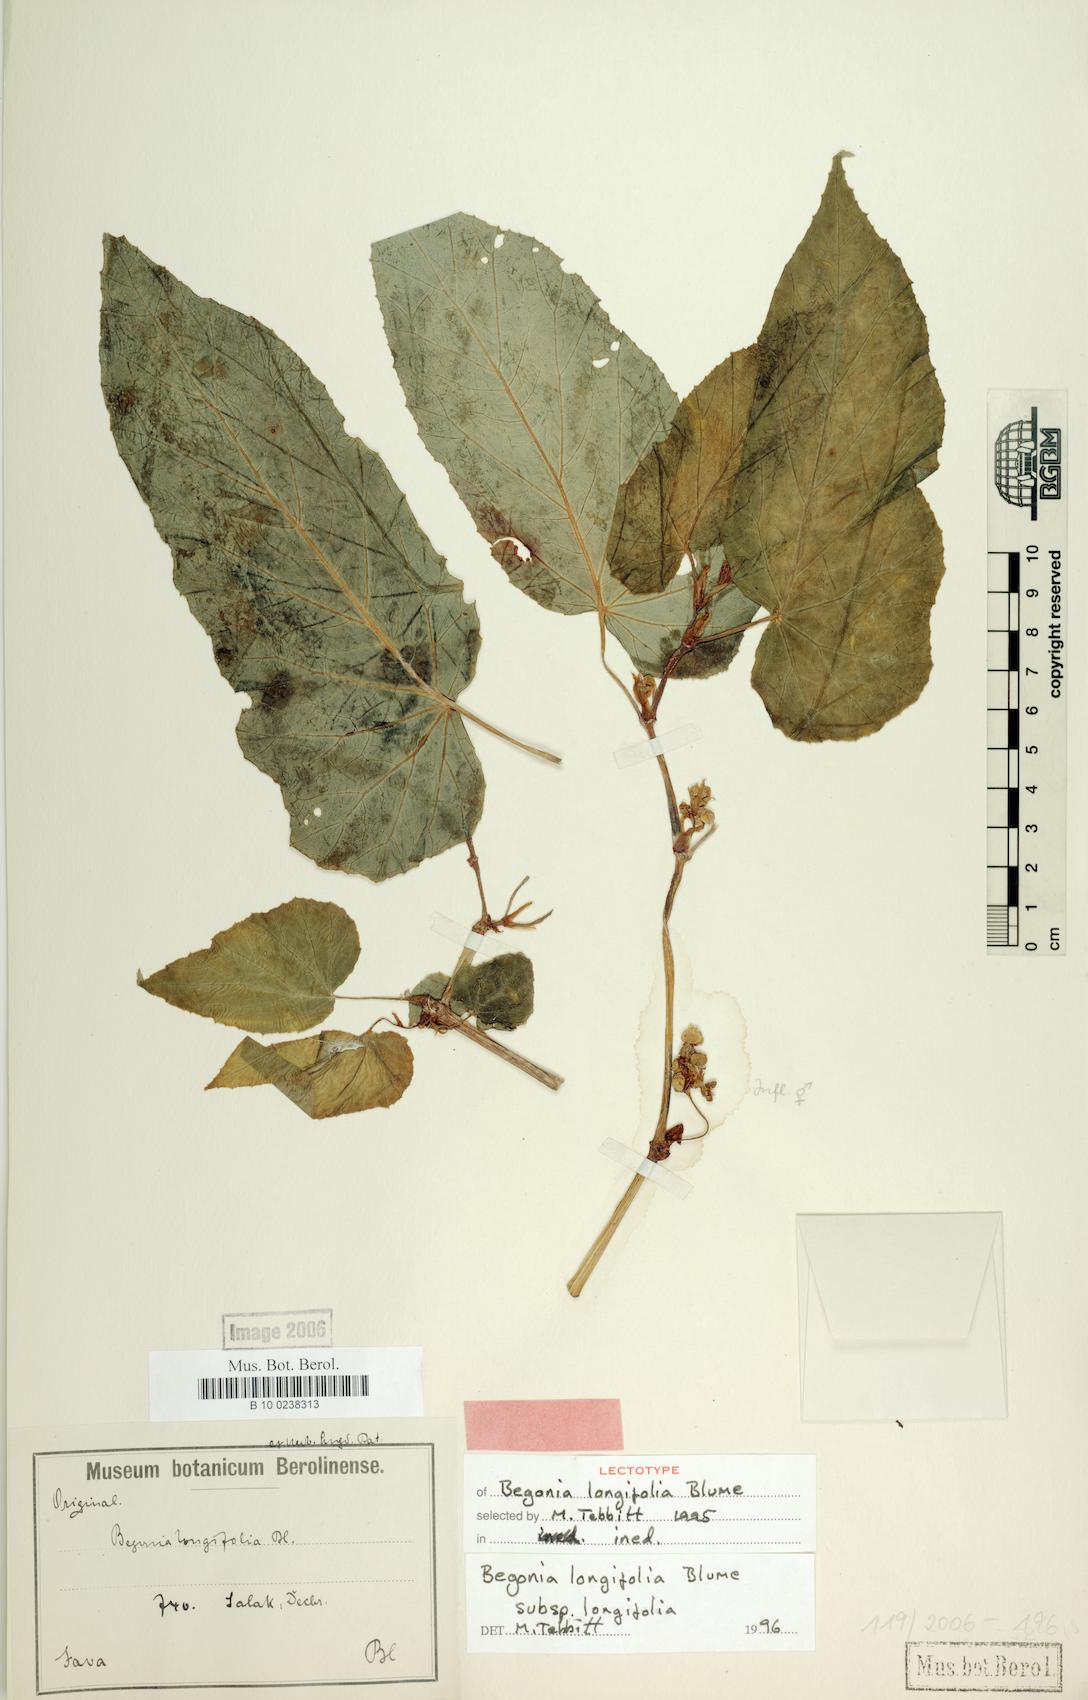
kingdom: Plantae
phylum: Tracheophyta
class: Magnoliopsida
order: Cucurbitales
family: Begoniaceae
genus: Begonia
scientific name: Begonia longiscapa
